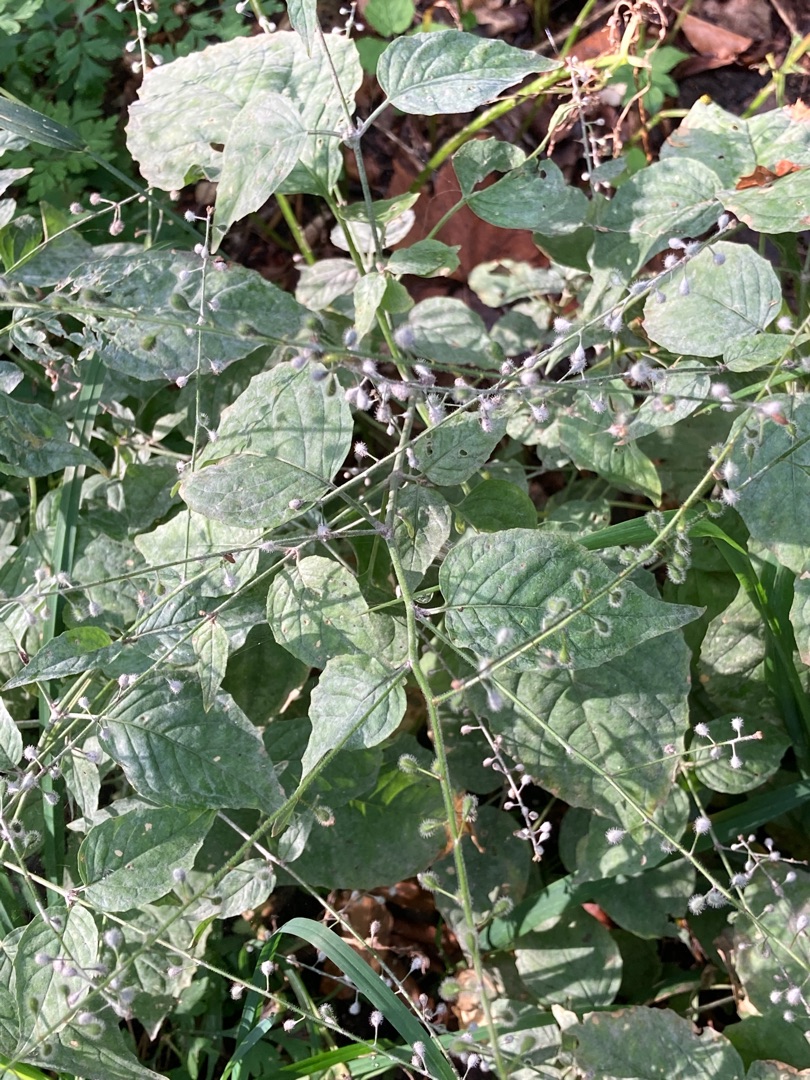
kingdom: Plantae
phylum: Tracheophyta
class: Magnoliopsida
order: Myrtales
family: Onagraceae
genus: Circaea
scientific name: Circaea lutetiana
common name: Dunet steffensurt
